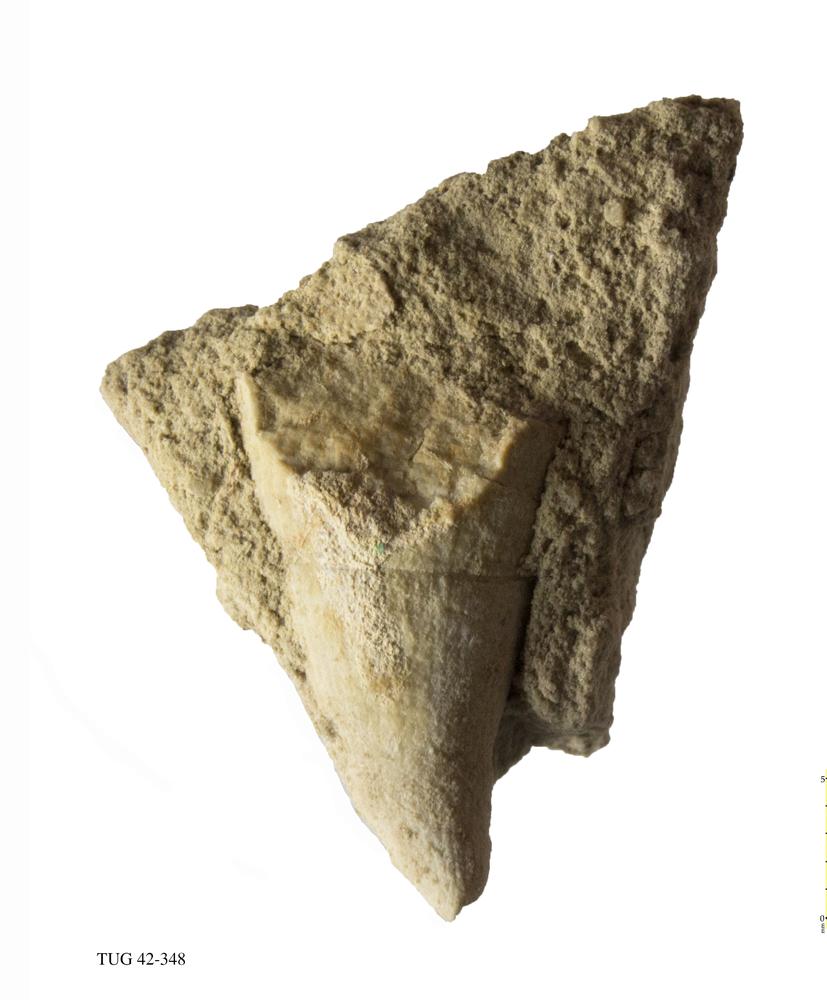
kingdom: Animalia
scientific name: Animalia
